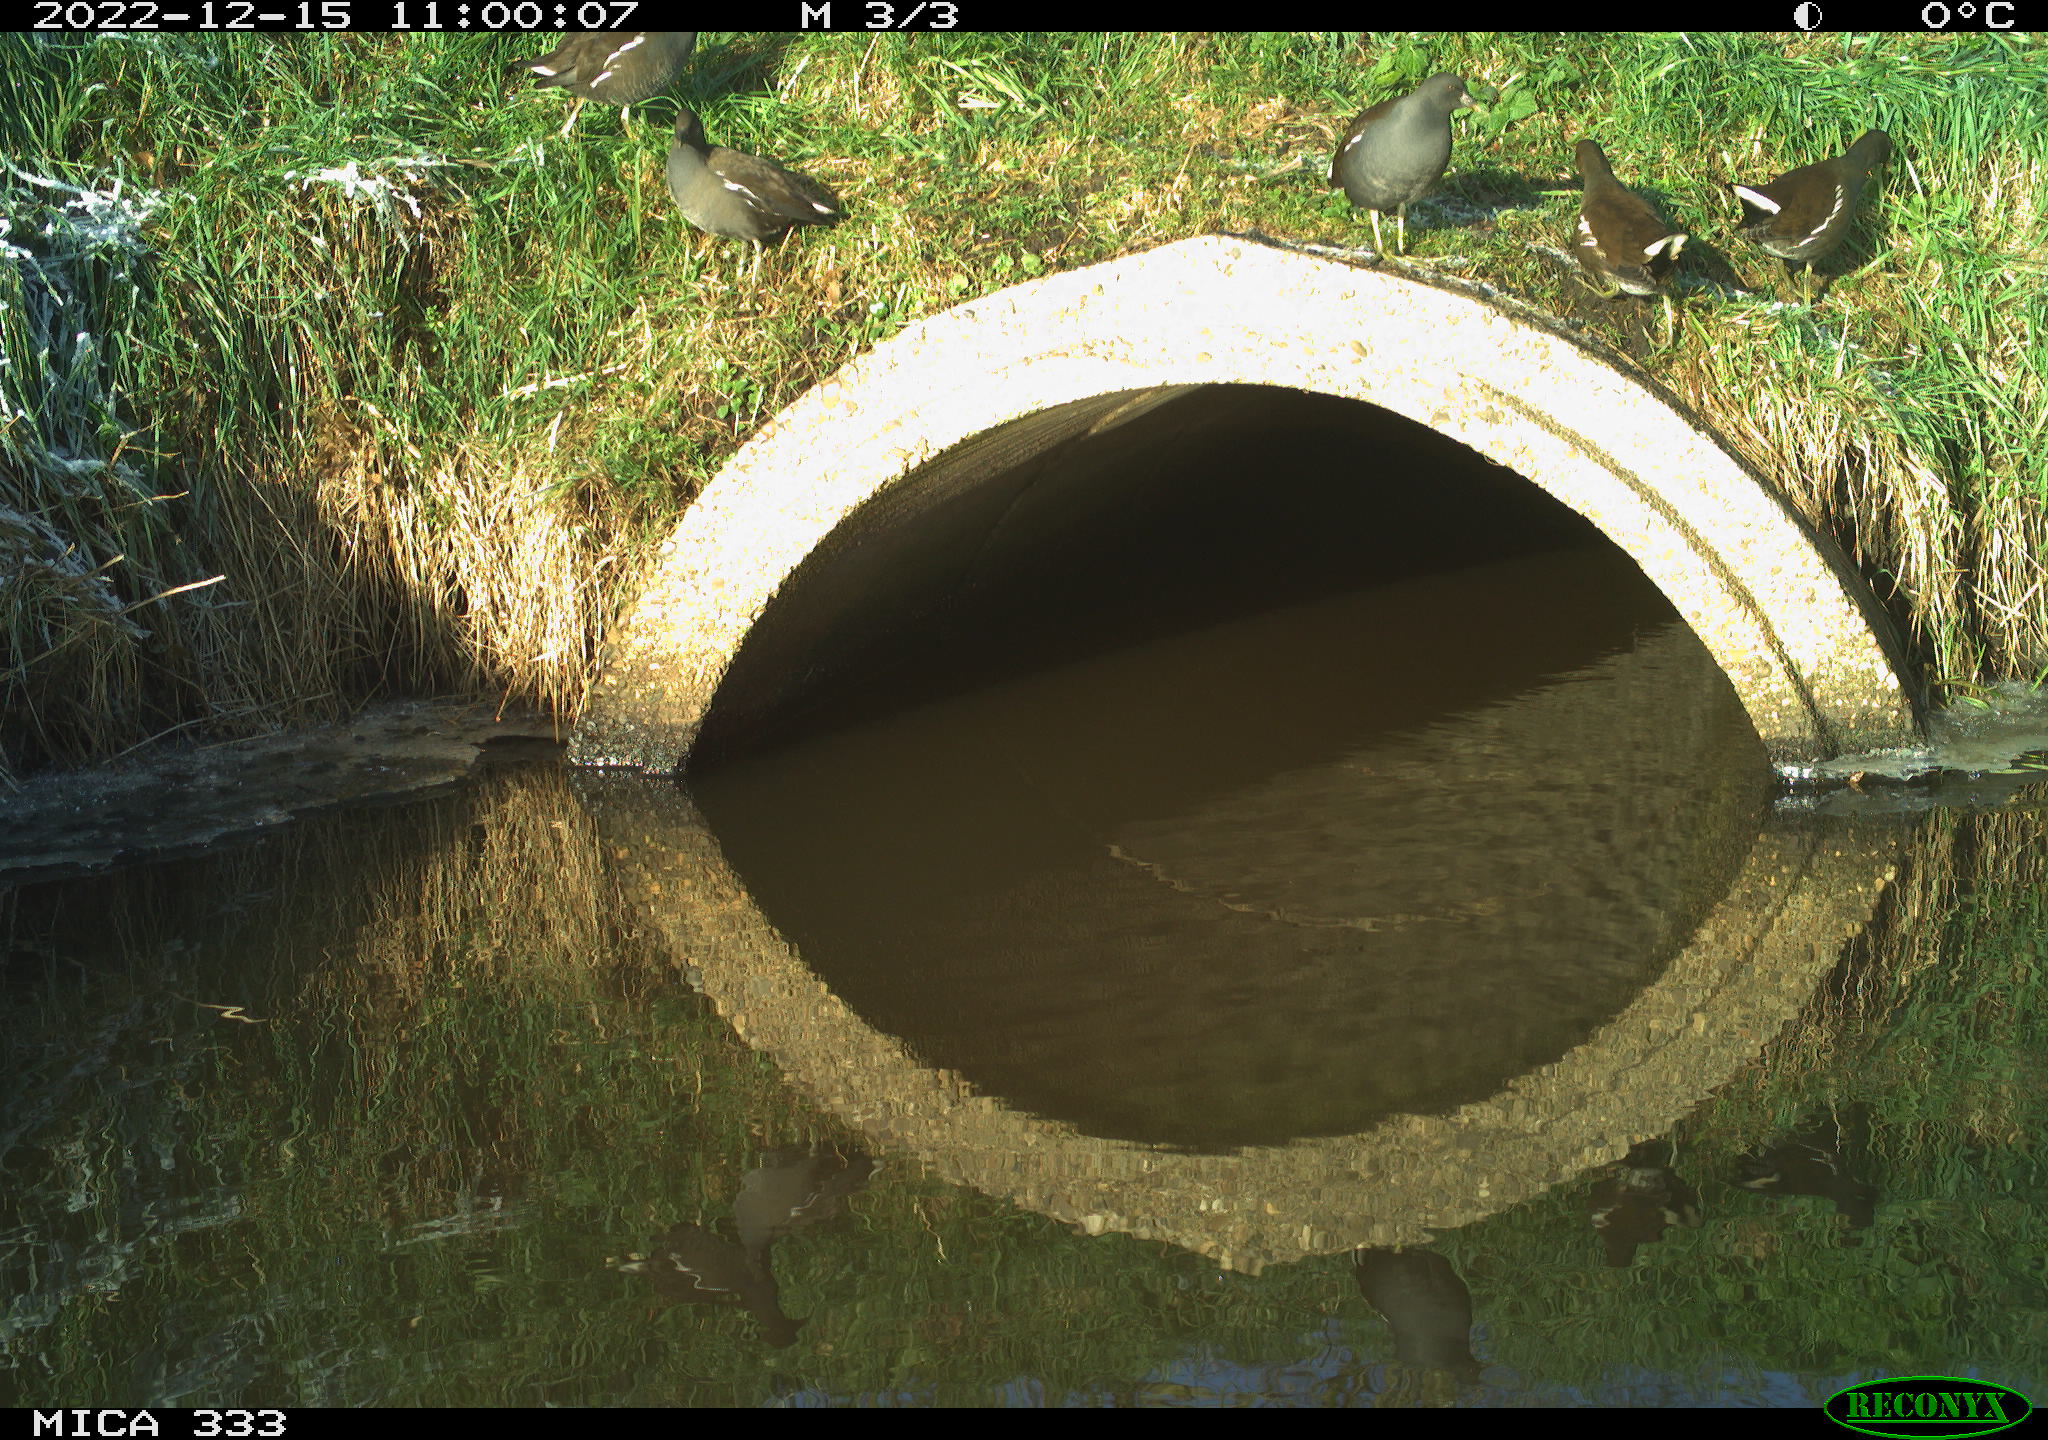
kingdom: Animalia
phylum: Chordata
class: Aves
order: Gruiformes
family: Rallidae
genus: Gallinula
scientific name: Gallinula chloropus
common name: Common moorhen
